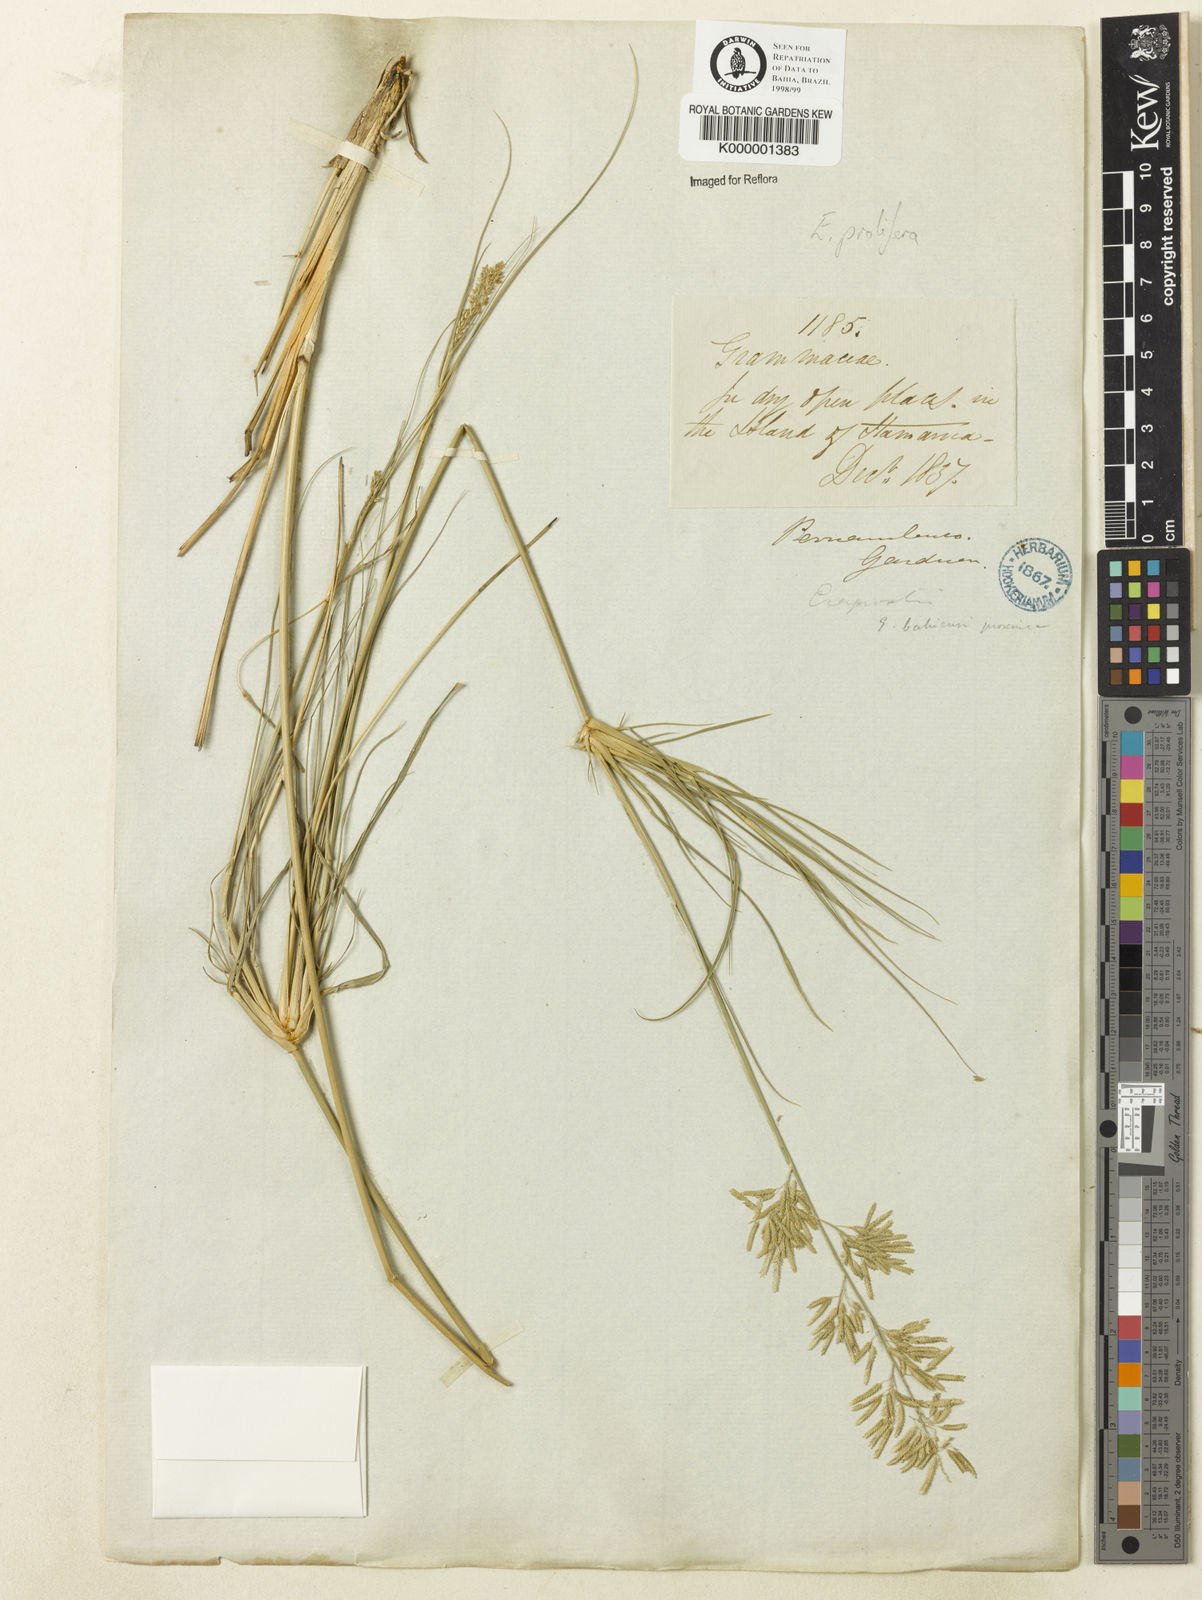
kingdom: Plantae
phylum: Tracheophyta
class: Liliopsida
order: Poales
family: Poaceae
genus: Eragrostis
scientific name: Eragrostis prolifera
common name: Dominican lovegrass
